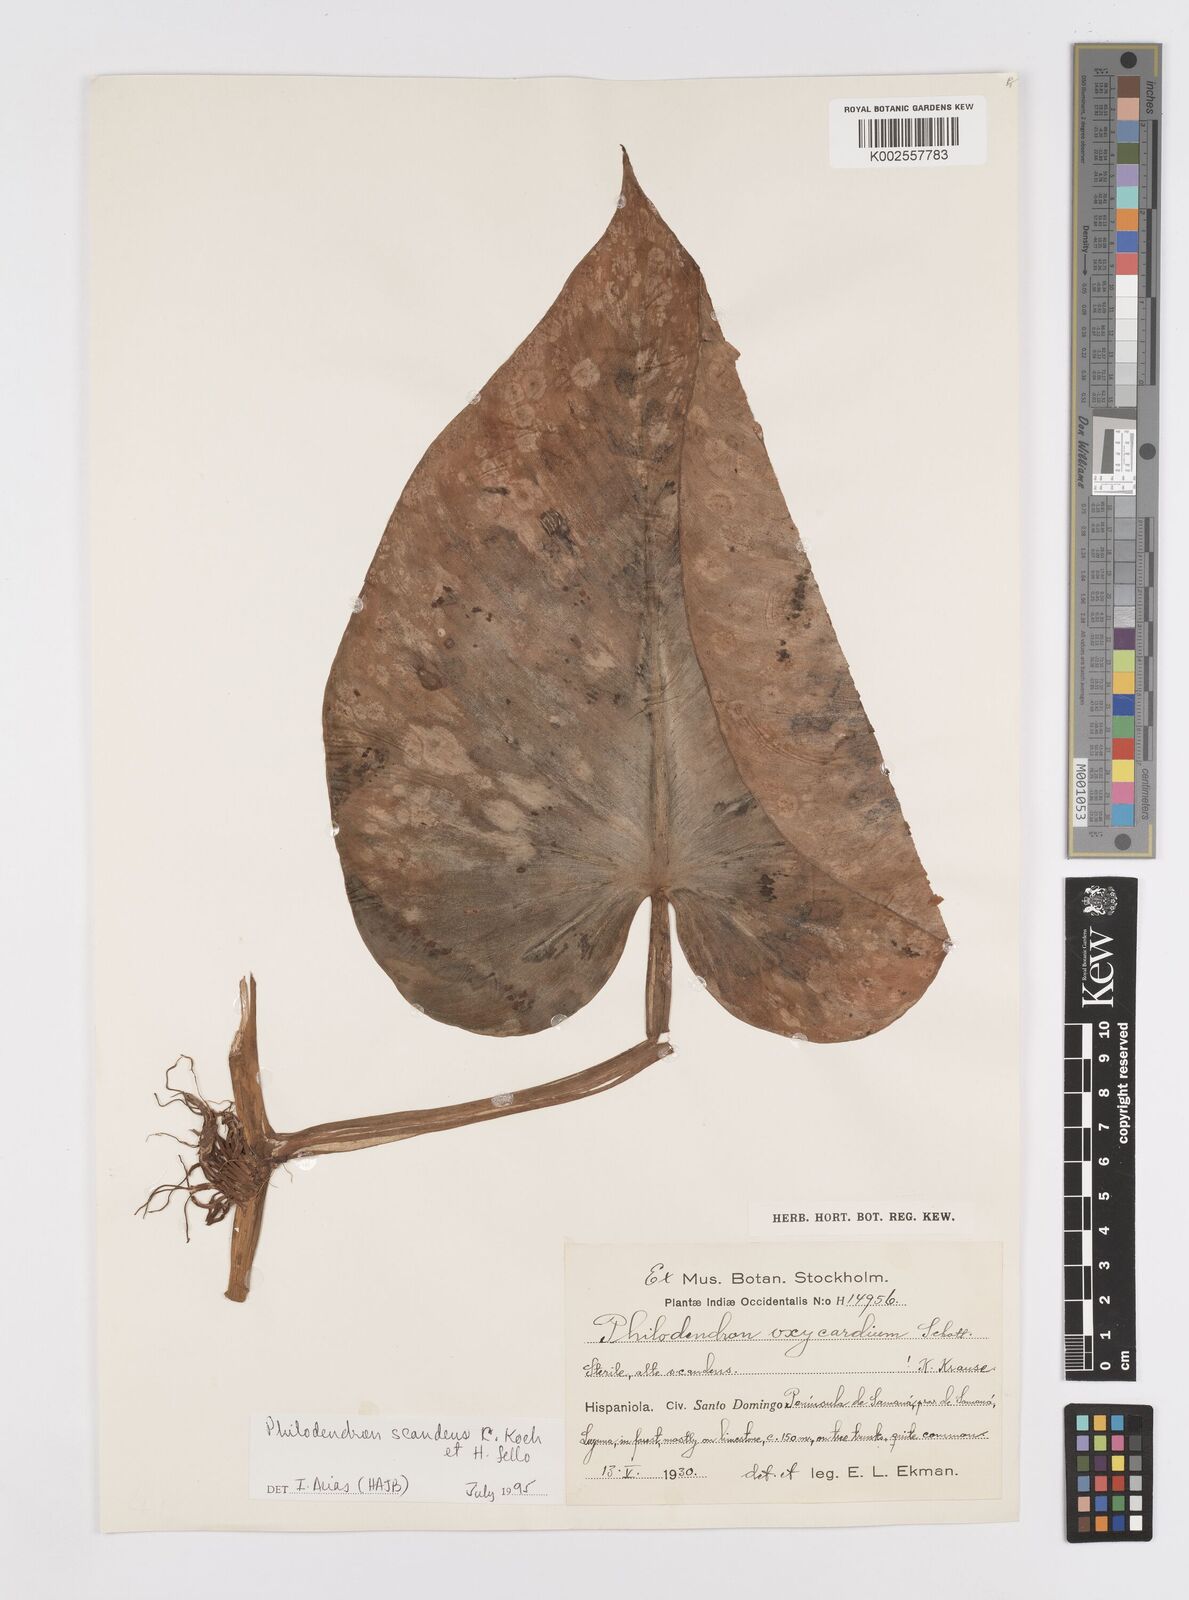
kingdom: Plantae
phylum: Tracheophyta
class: Liliopsida
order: Alismatales
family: Araceae
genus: Philodendron
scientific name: Philodendron hederaceum
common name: Vilevine
